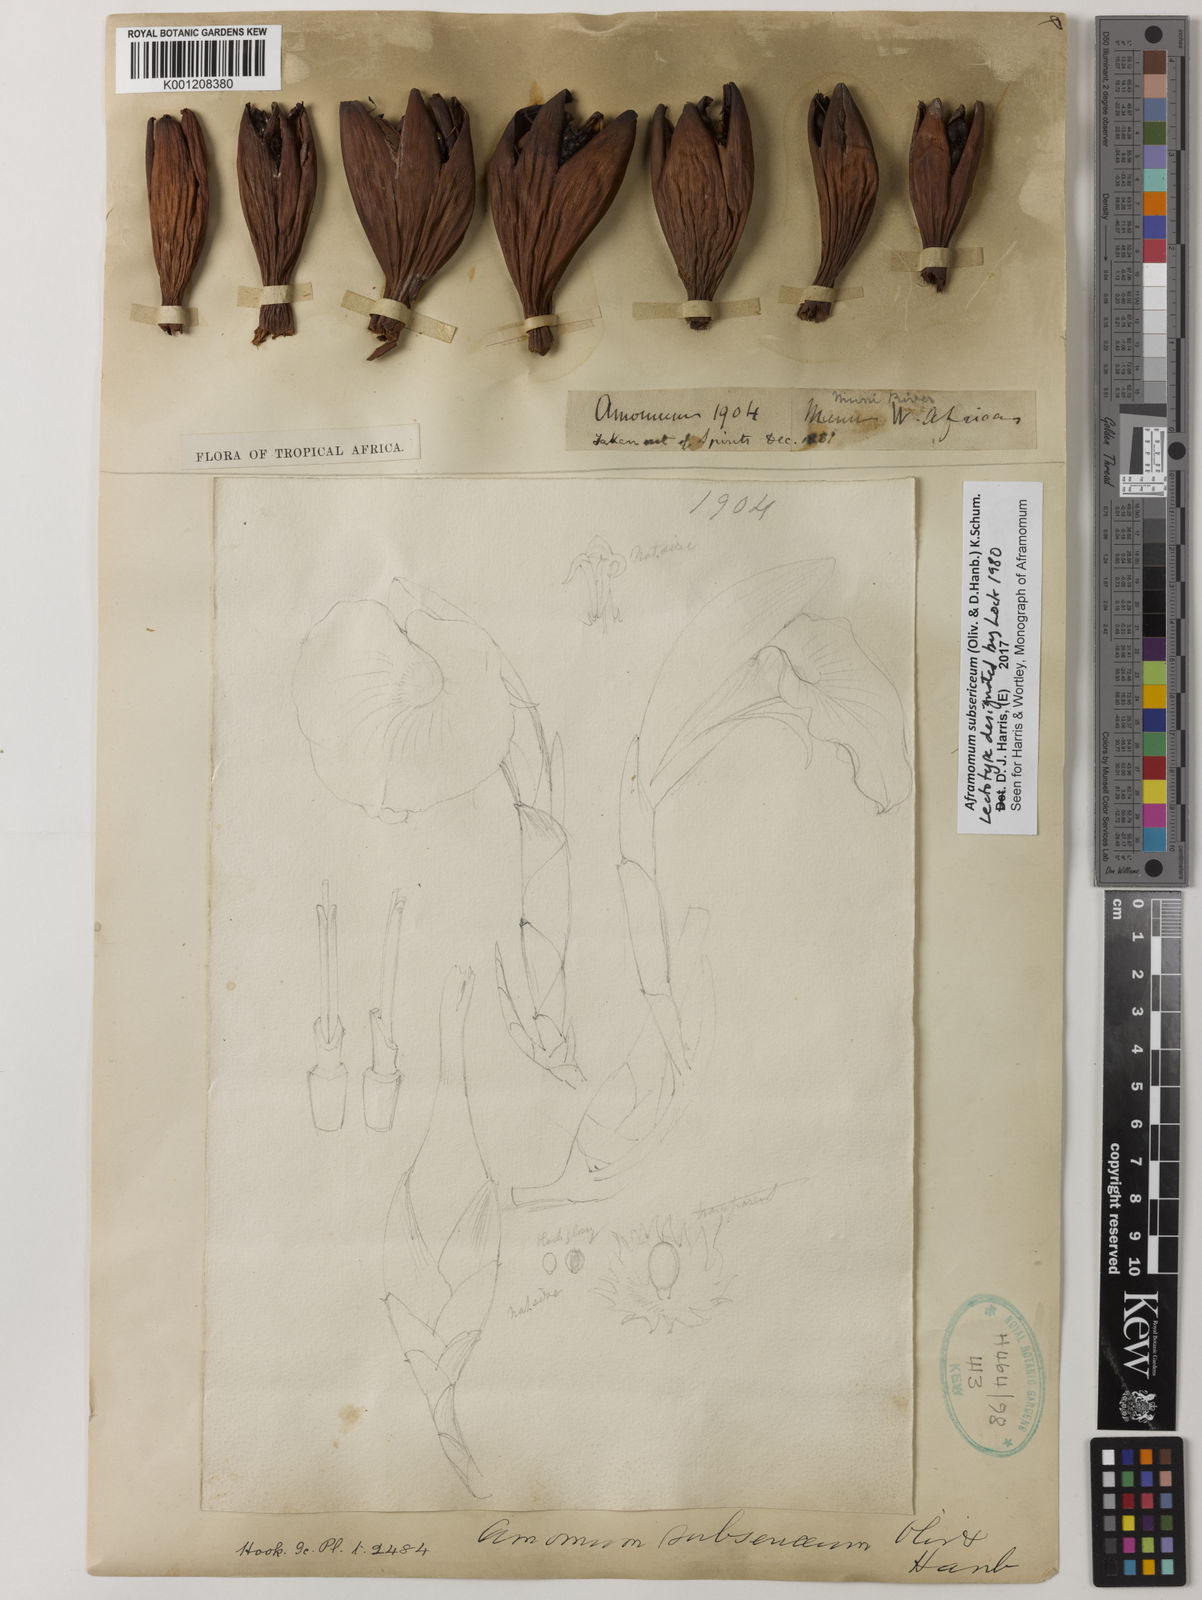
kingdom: Plantae
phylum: Tracheophyta
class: Liliopsida
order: Zingiberales
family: Zingiberaceae
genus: Aframomum
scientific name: Aframomum subsericeum
